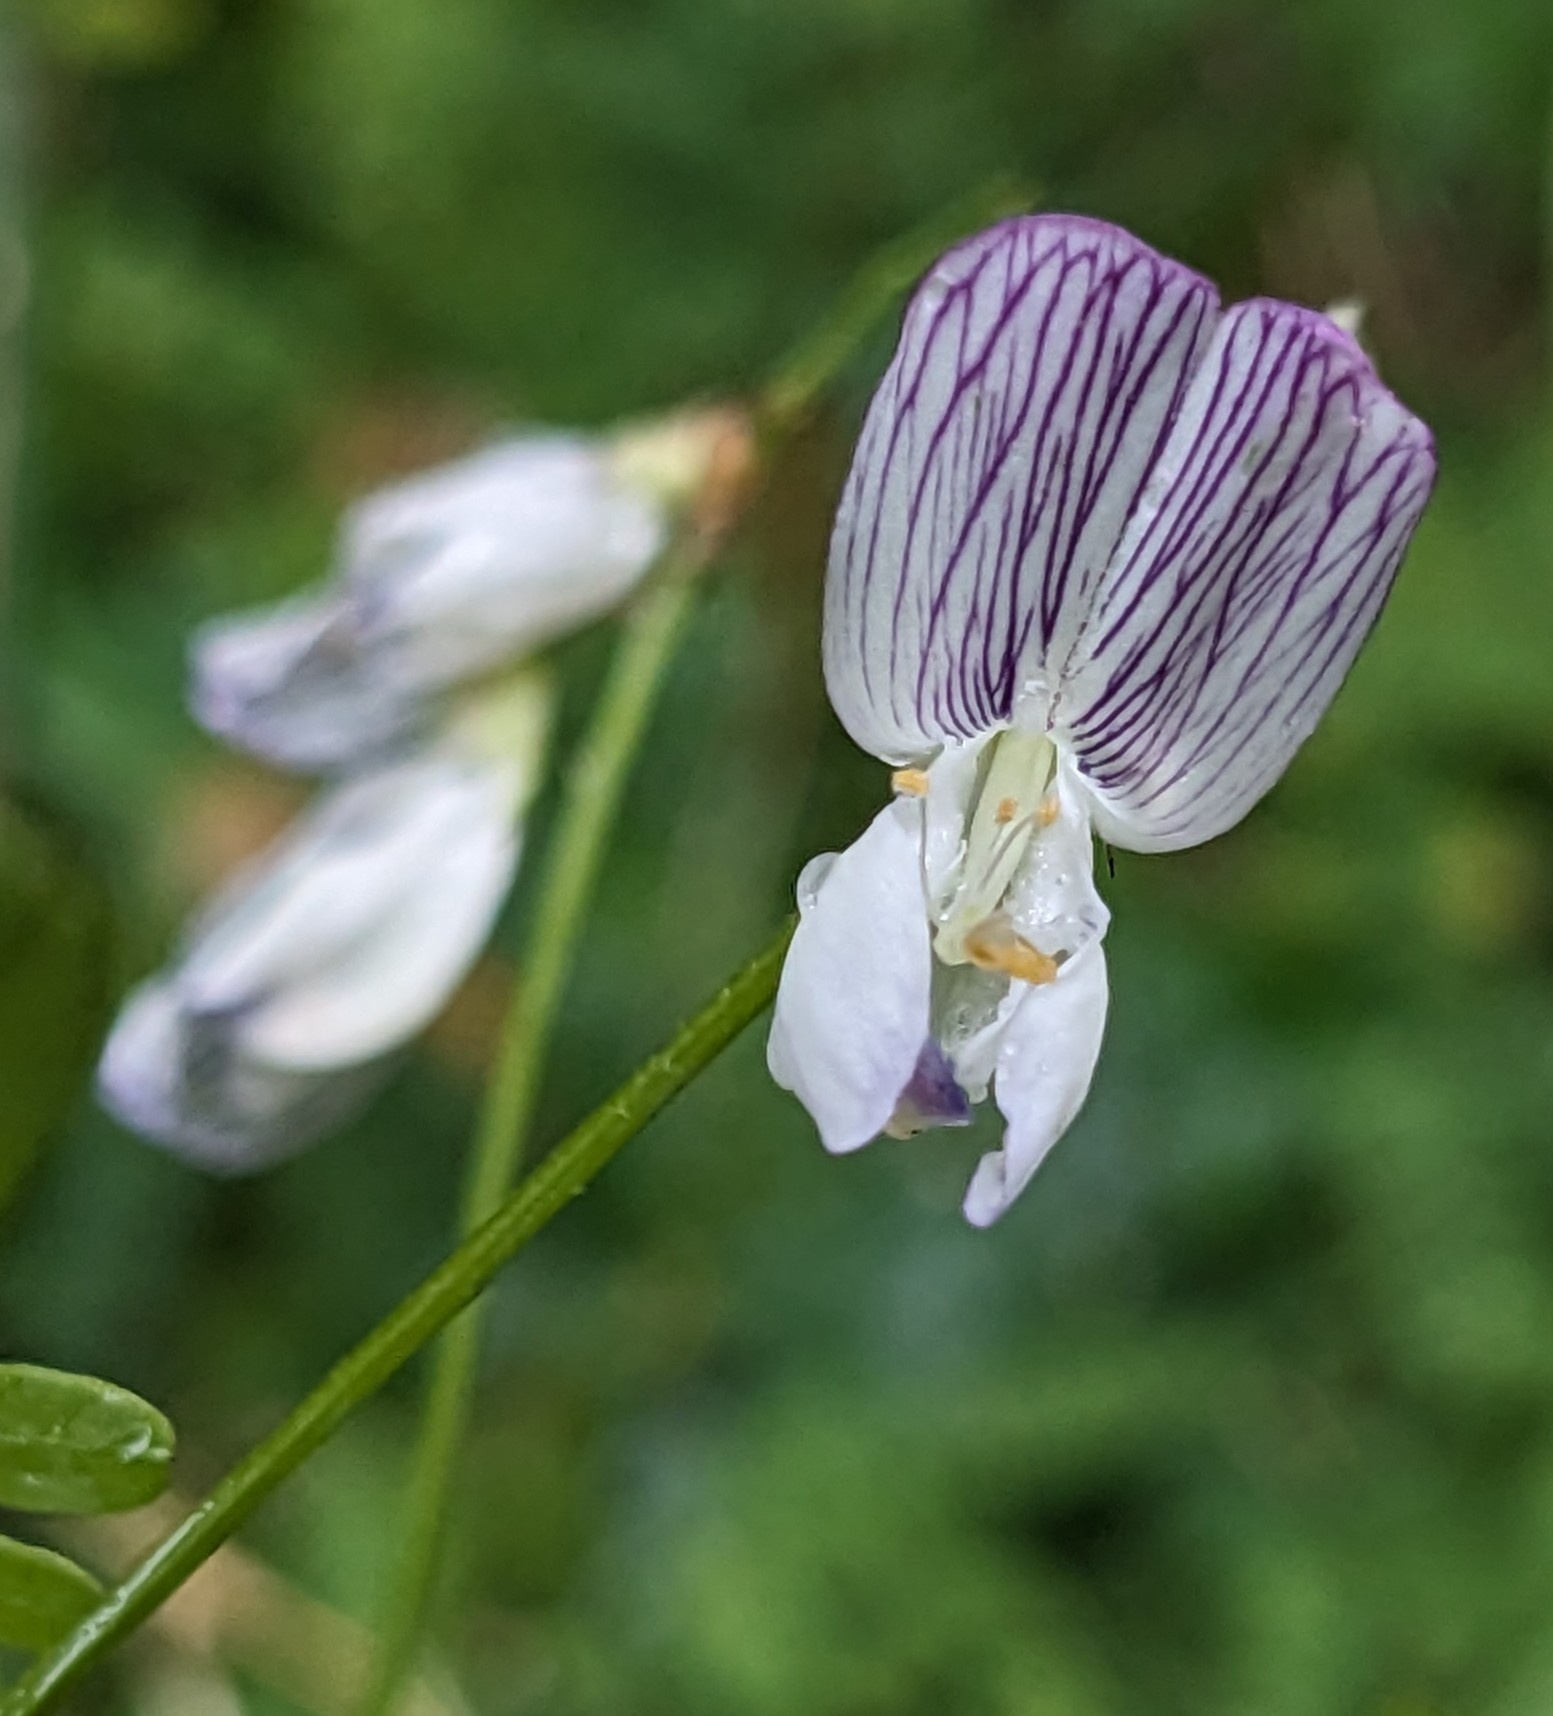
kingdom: Plantae
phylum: Tracheophyta
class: Magnoliopsida
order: Fabales
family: Fabaceae
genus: Vicia
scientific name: Vicia sylvatica
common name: Skov-vikke
